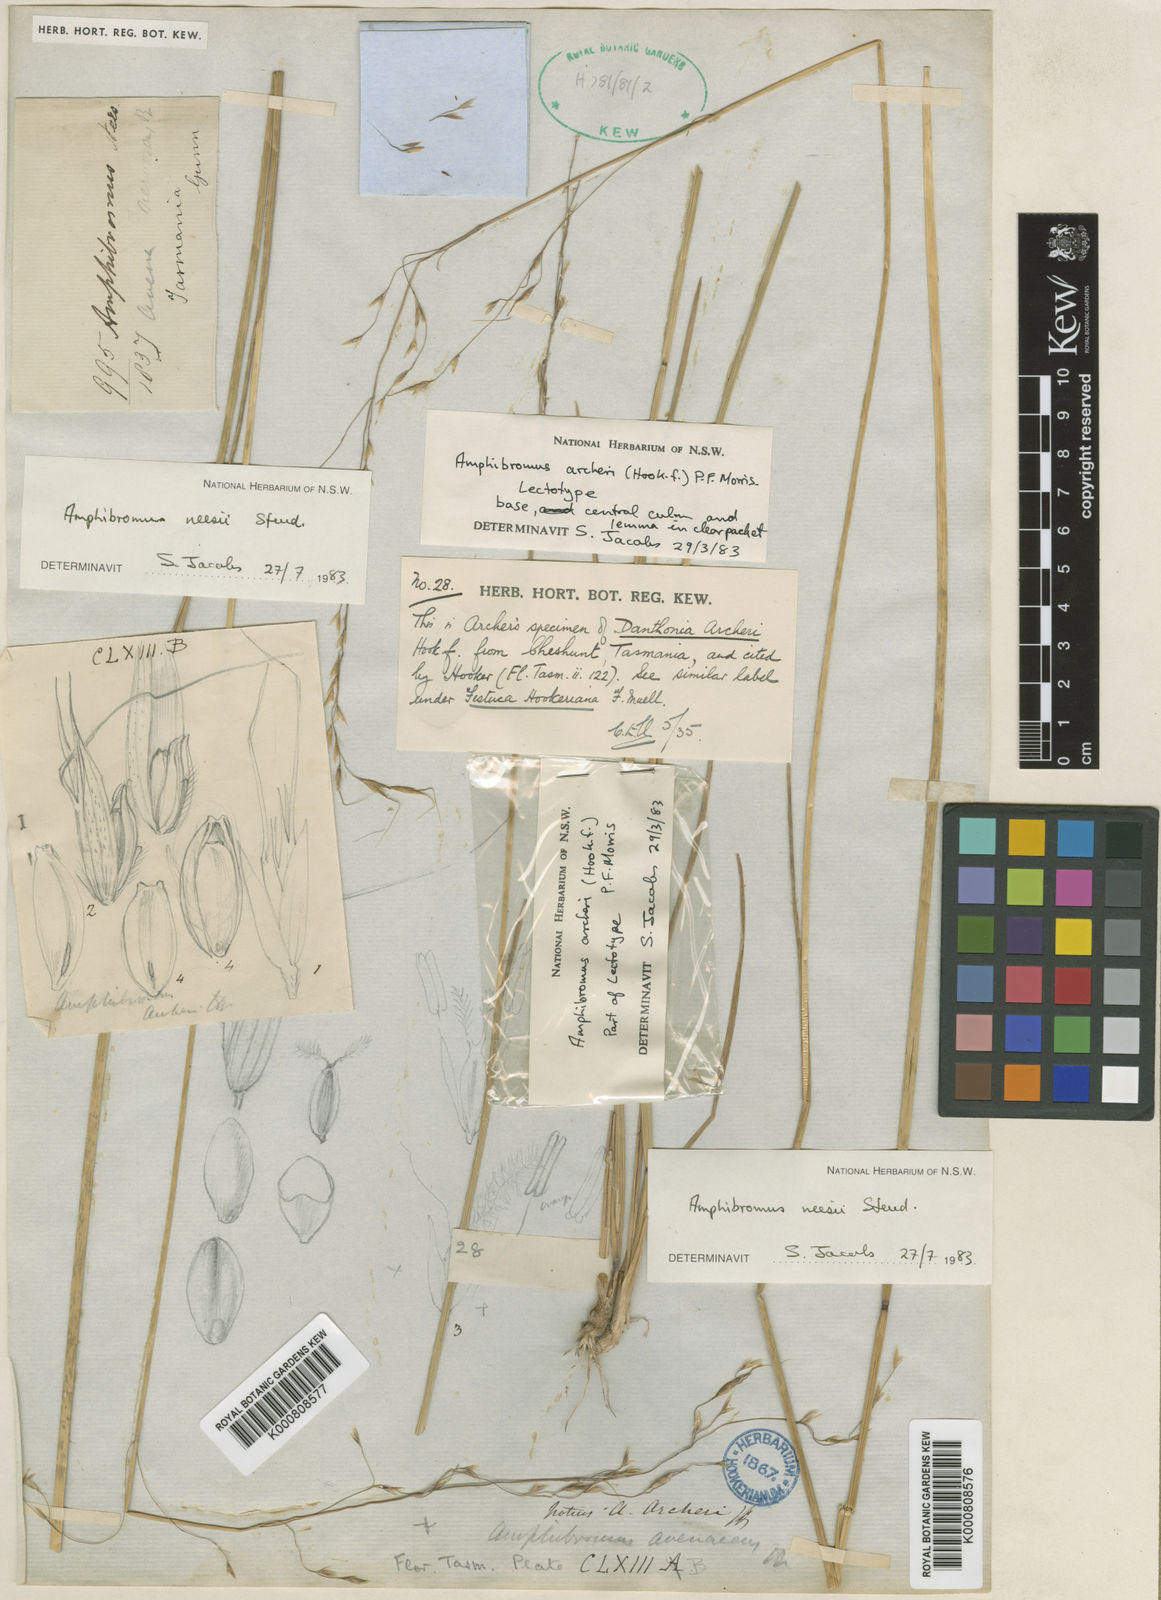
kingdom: Plantae
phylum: Tracheophyta
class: Liliopsida
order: Poales
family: Poaceae
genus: Amphibromus
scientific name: Amphibromus neesii
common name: Australian wallaby grass
